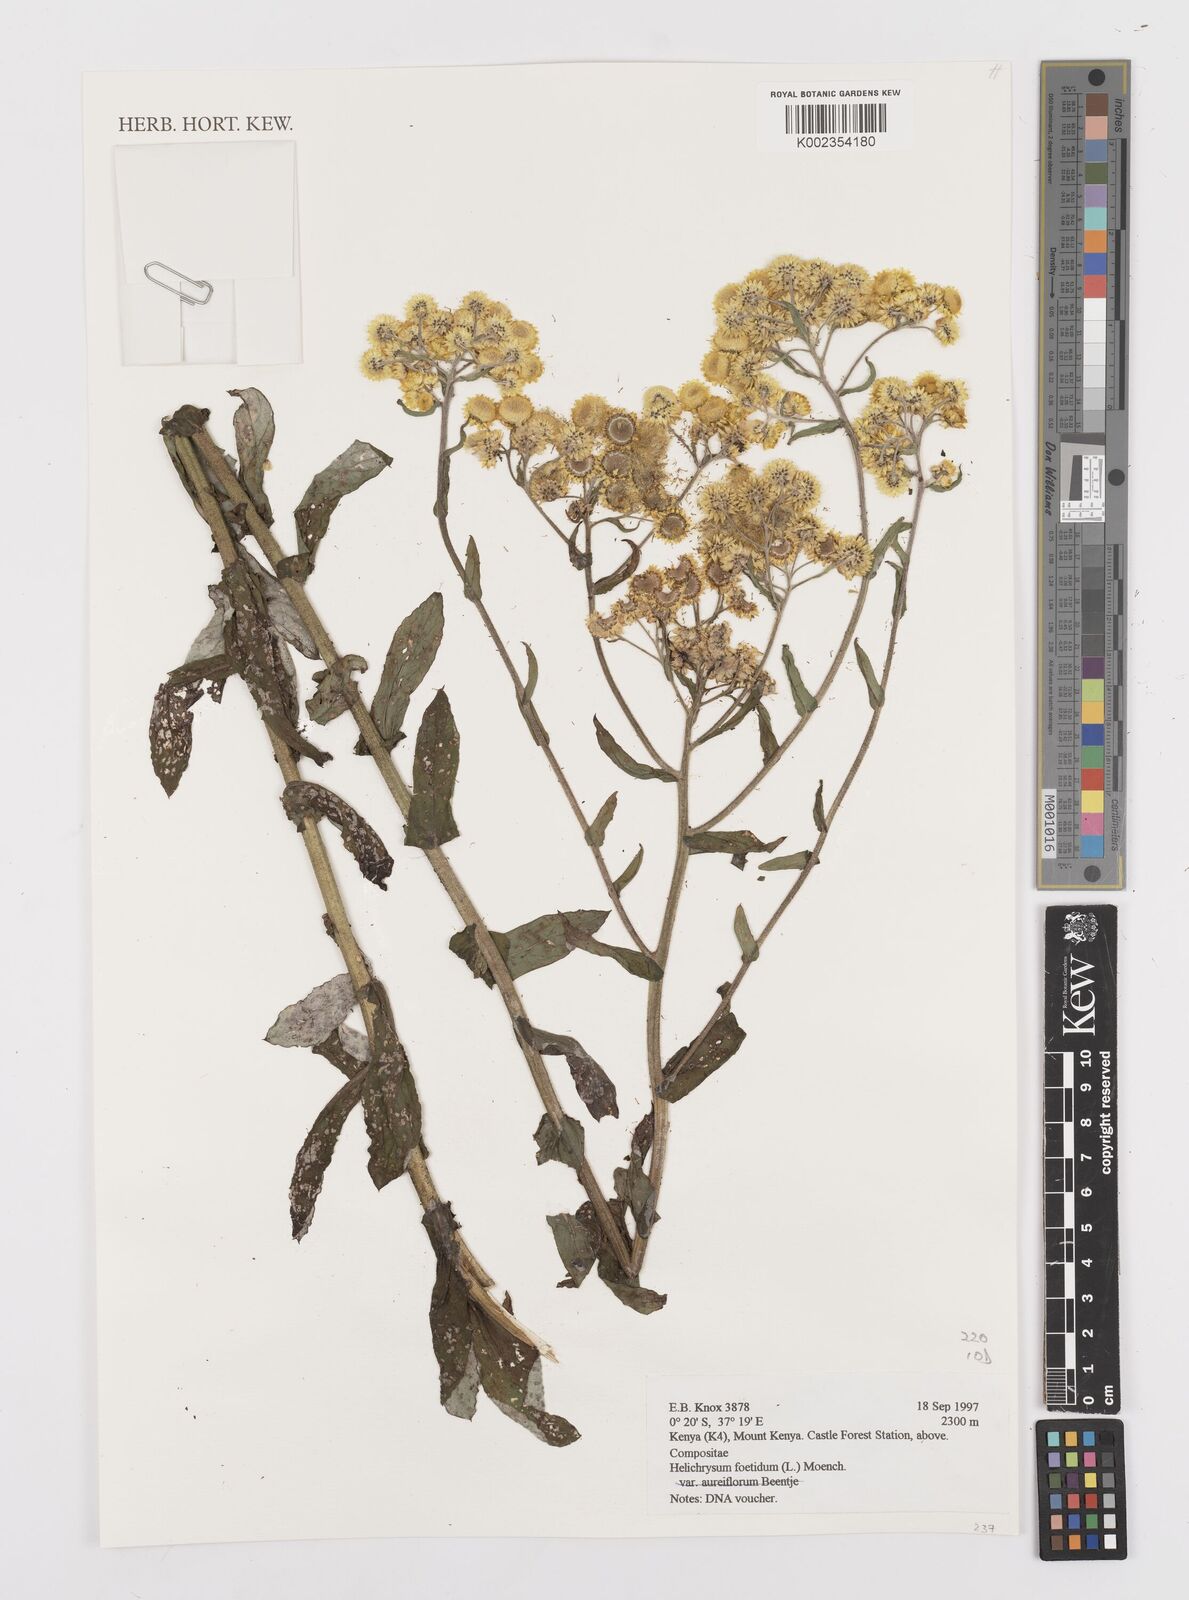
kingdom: Plantae
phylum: Tracheophyta
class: Magnoliopsida
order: Asterales
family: Asteraceae
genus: Helichrysum
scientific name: Helichrysum foetidum
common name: Stinking everlasting
